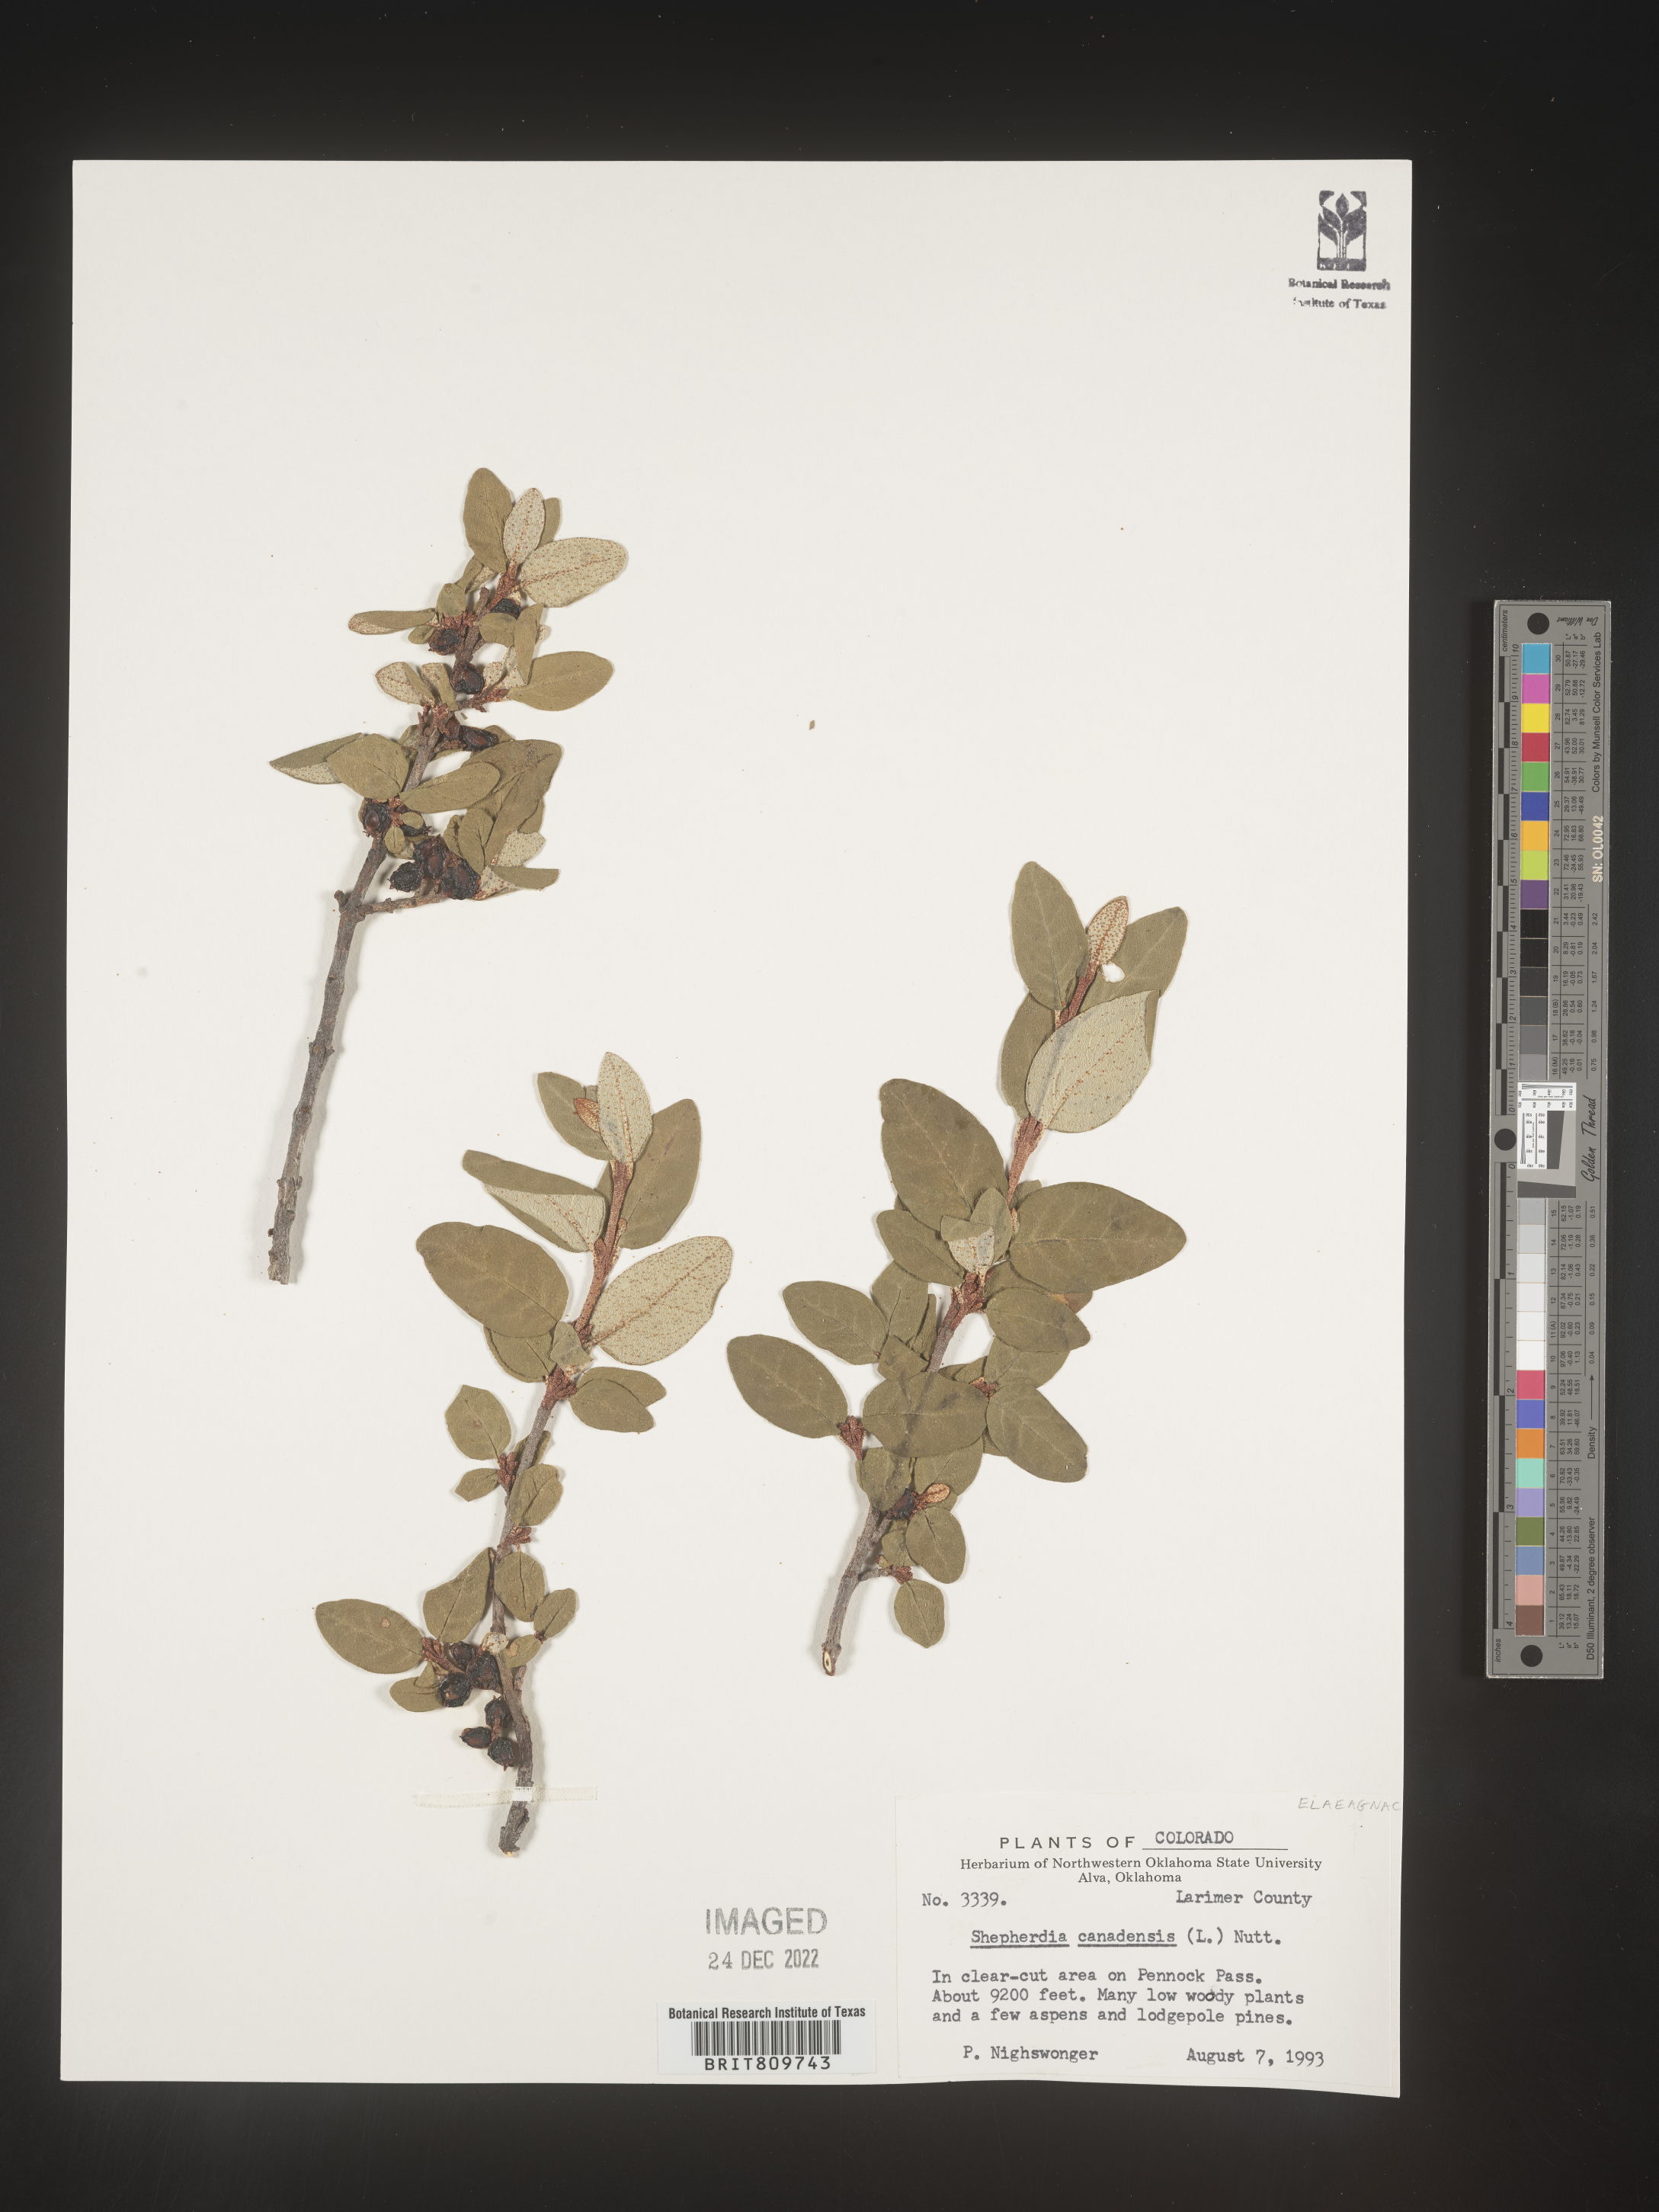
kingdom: Plantae
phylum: Tracheophyta
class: Magnoliopsida
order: Rosales
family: Elaeagnaceae
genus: Shepherdia
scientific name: Shepherdia canadensis
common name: Soapberry
